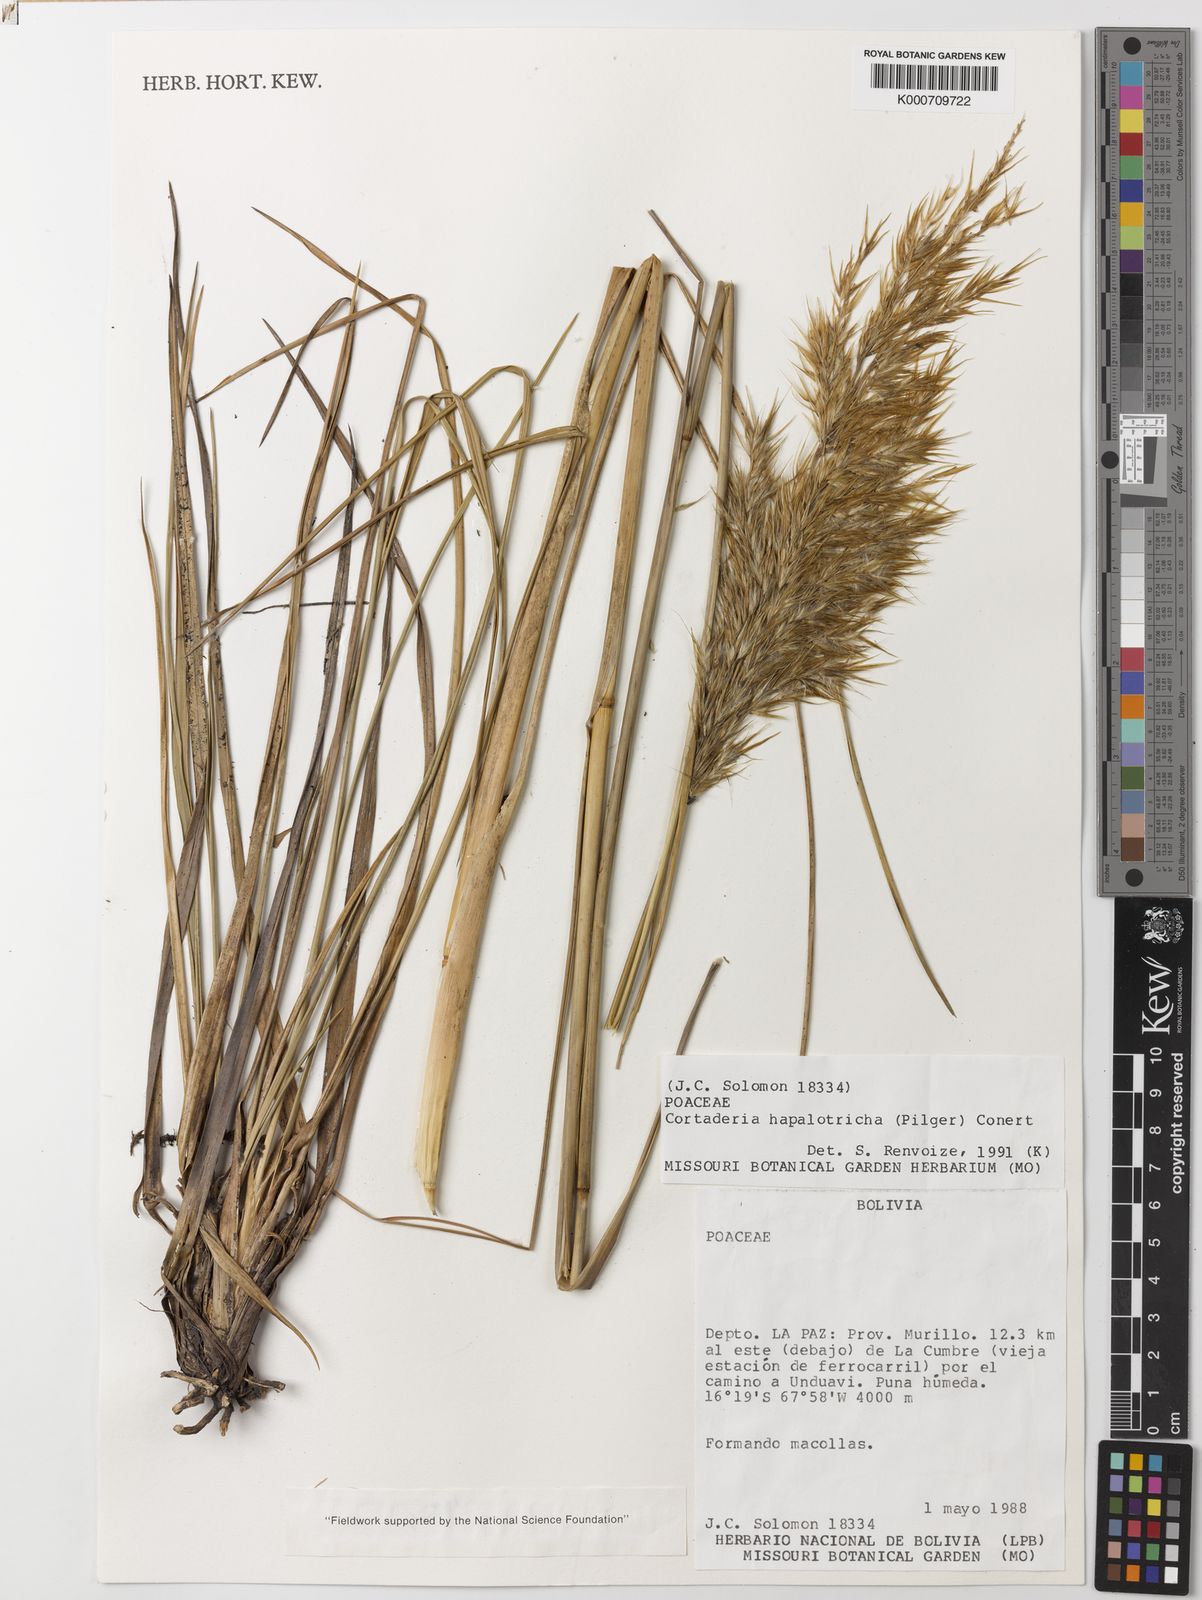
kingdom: Plantae
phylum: Tracheophyta
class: Liliopsida
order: Poales
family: Poaceae
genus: Cortaderia
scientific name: Cortaderia hapalotricha
